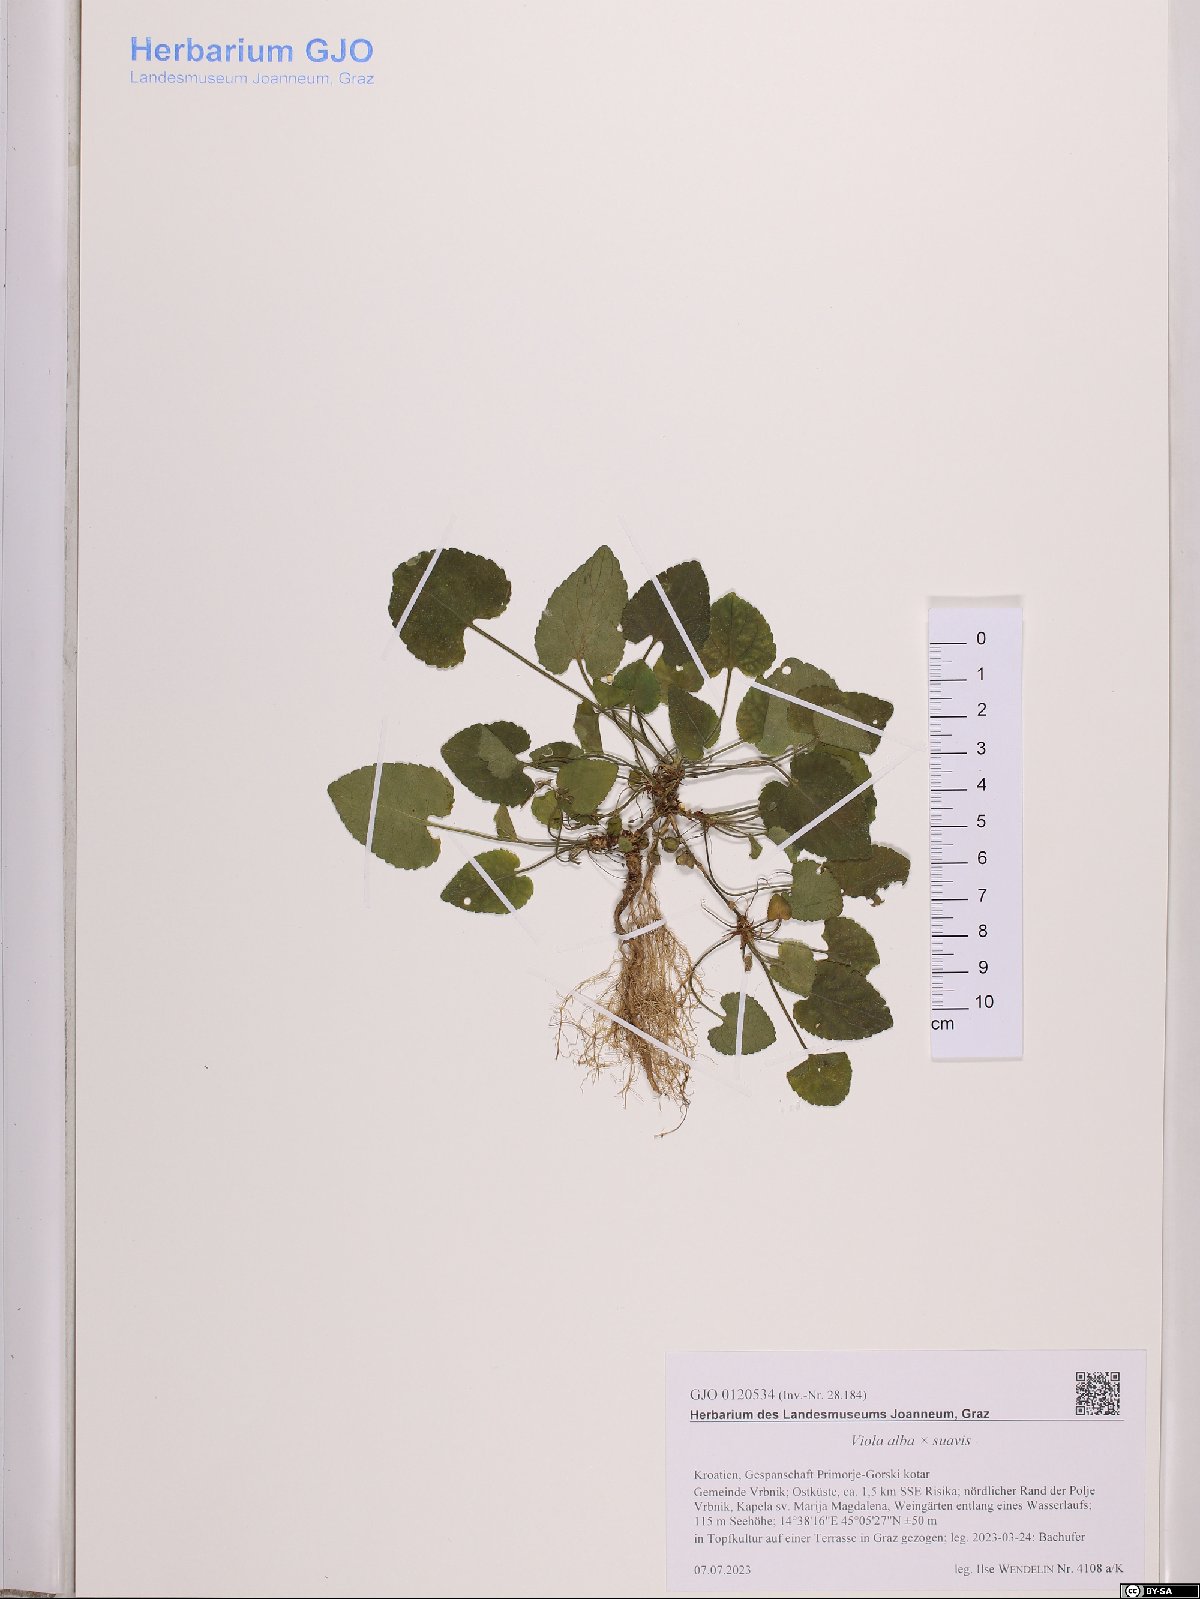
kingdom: Plantae
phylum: Tracheophyta
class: Magnoliopsida
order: Malpighiales
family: Violaceae
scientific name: Violaceae
